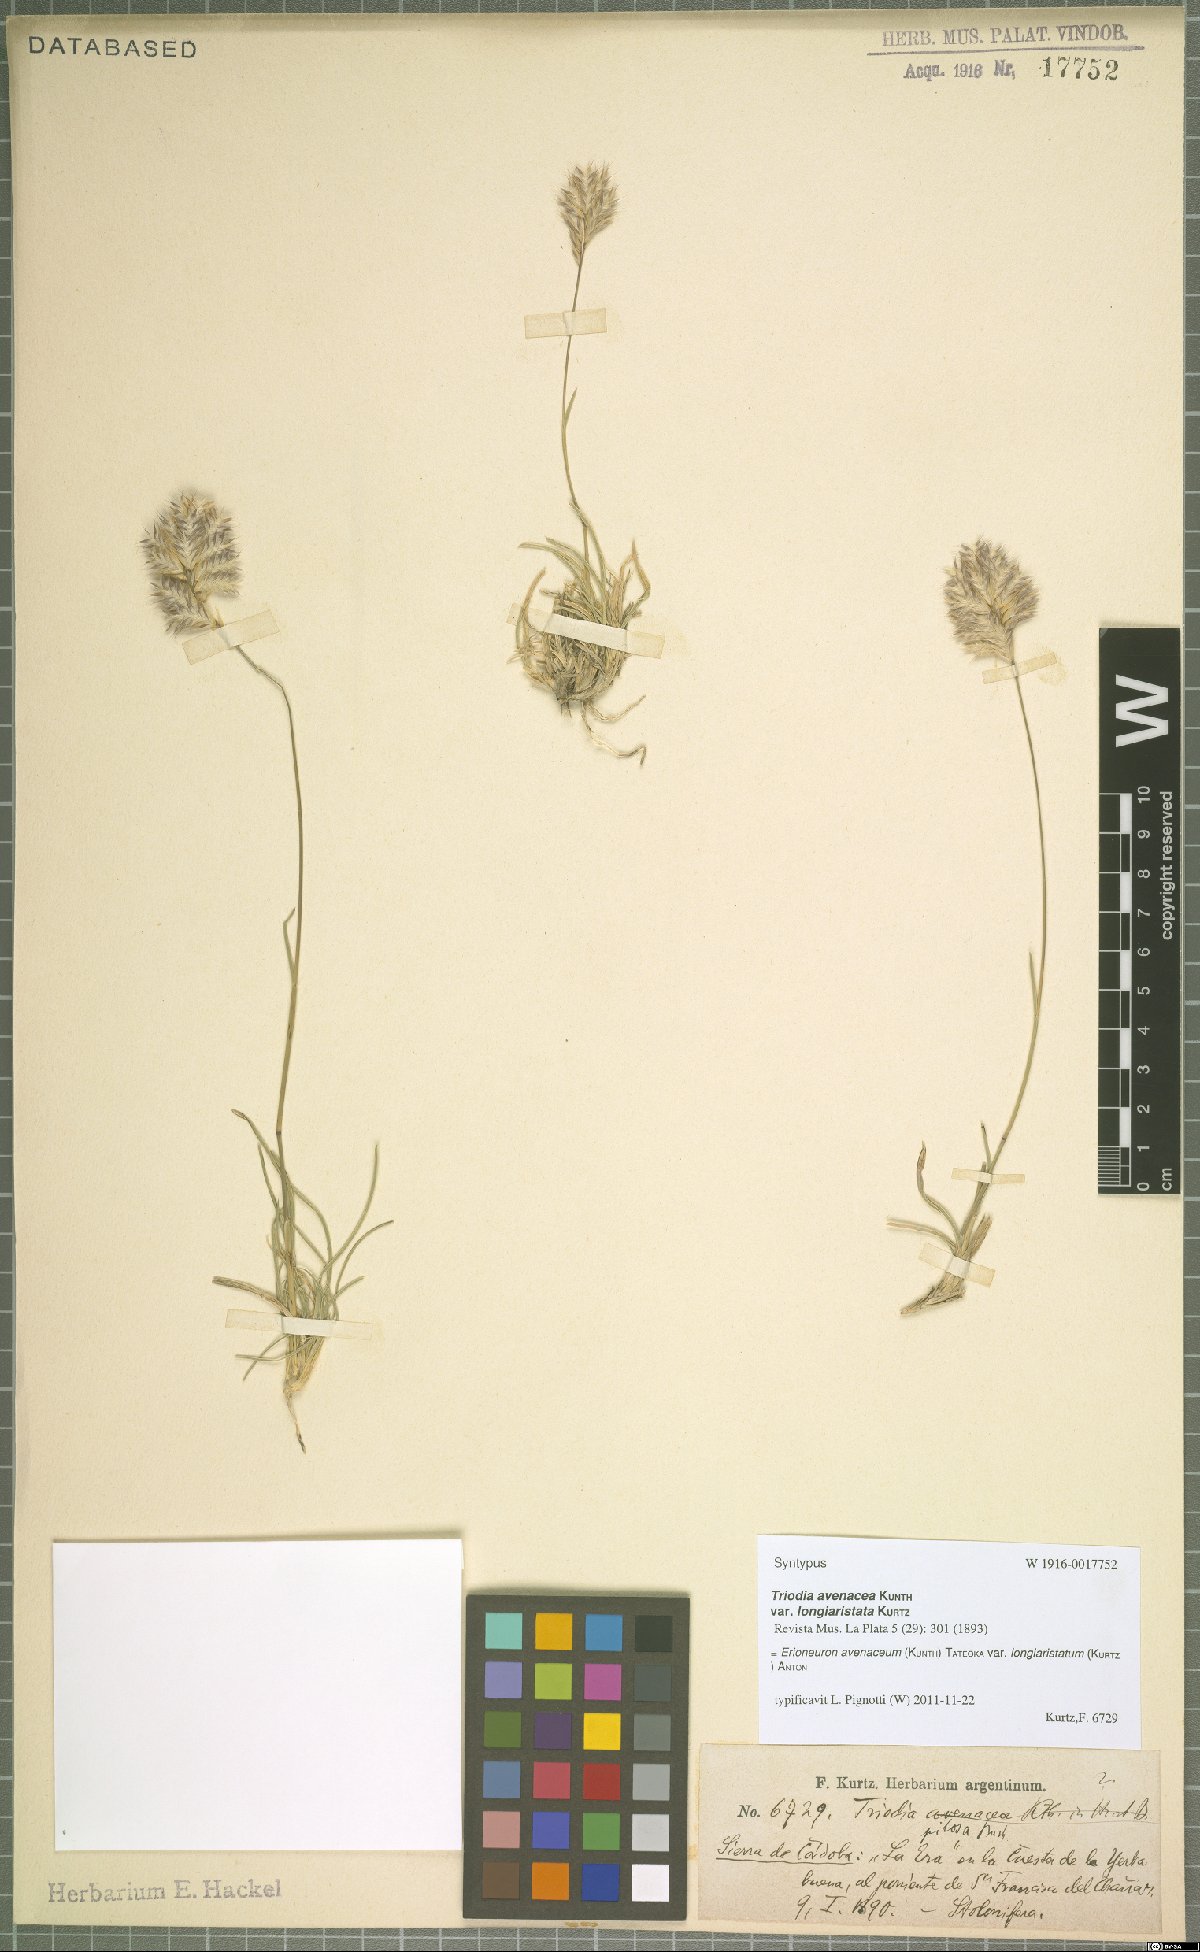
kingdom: Plantae
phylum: Tracheophyta
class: Liliopsida
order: Poales
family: Poaceae
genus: Erioneuron
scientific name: Erioneuron pilosum
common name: Hairy woolly grass
